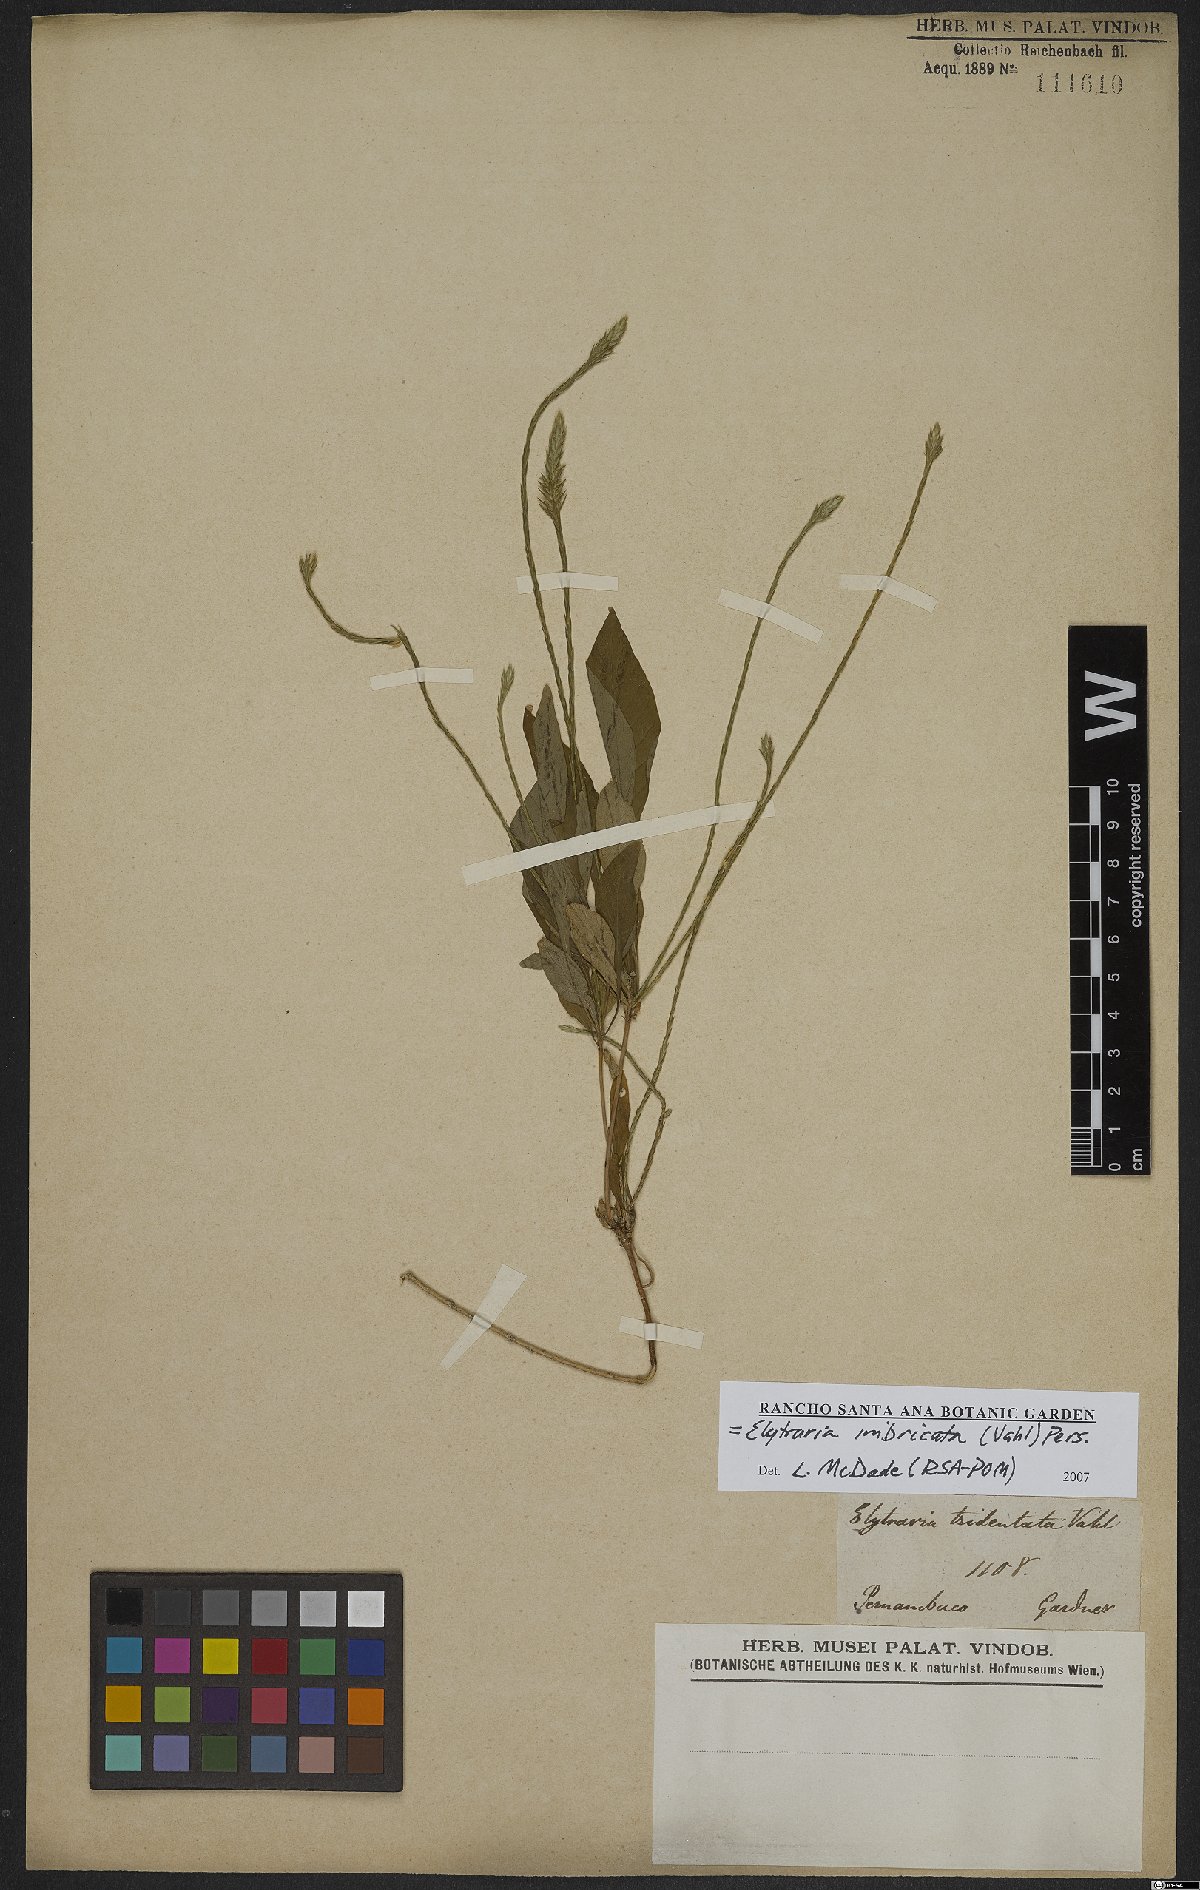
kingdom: Plantae
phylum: Tracheophyta
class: Magnoliopsida
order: Lamiales
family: Acanthaceae
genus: Elytraria
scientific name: Elytraria imbricata
